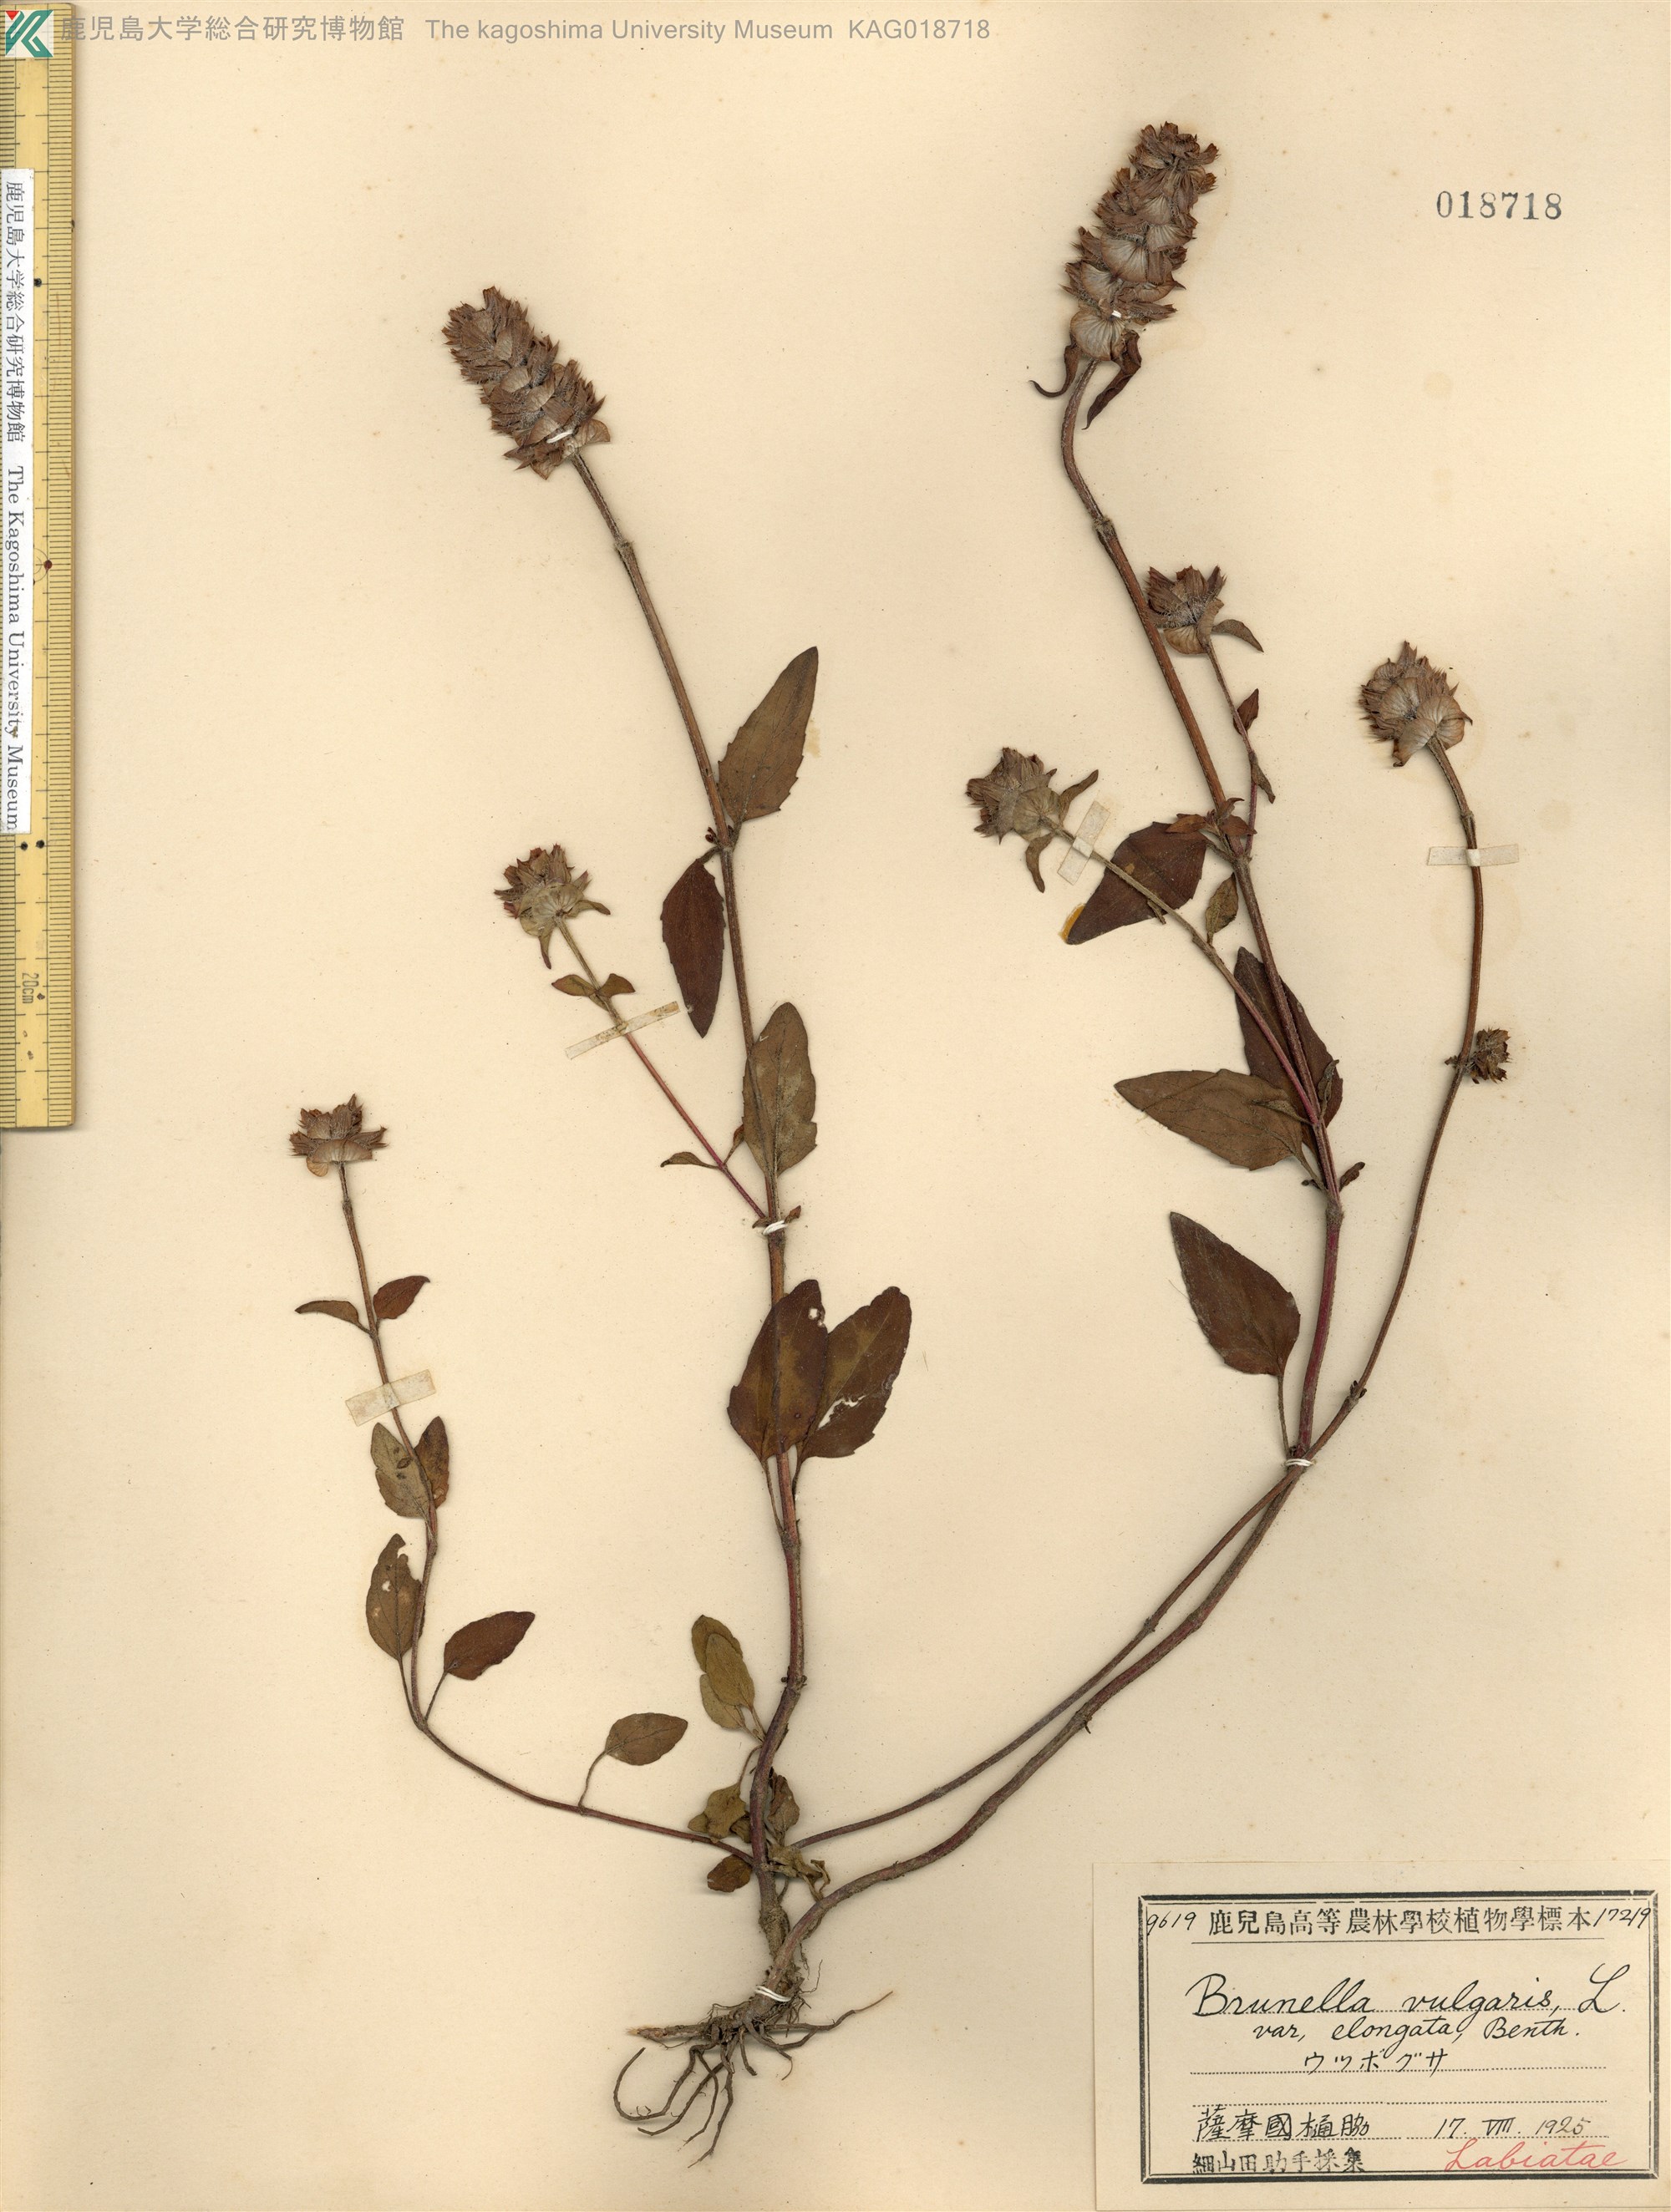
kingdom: Plantae
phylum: Tracheophyta
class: Magnoliopsida
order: Lamiales
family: Lamiaceae
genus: Prunella
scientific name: Prunella vulgaris
